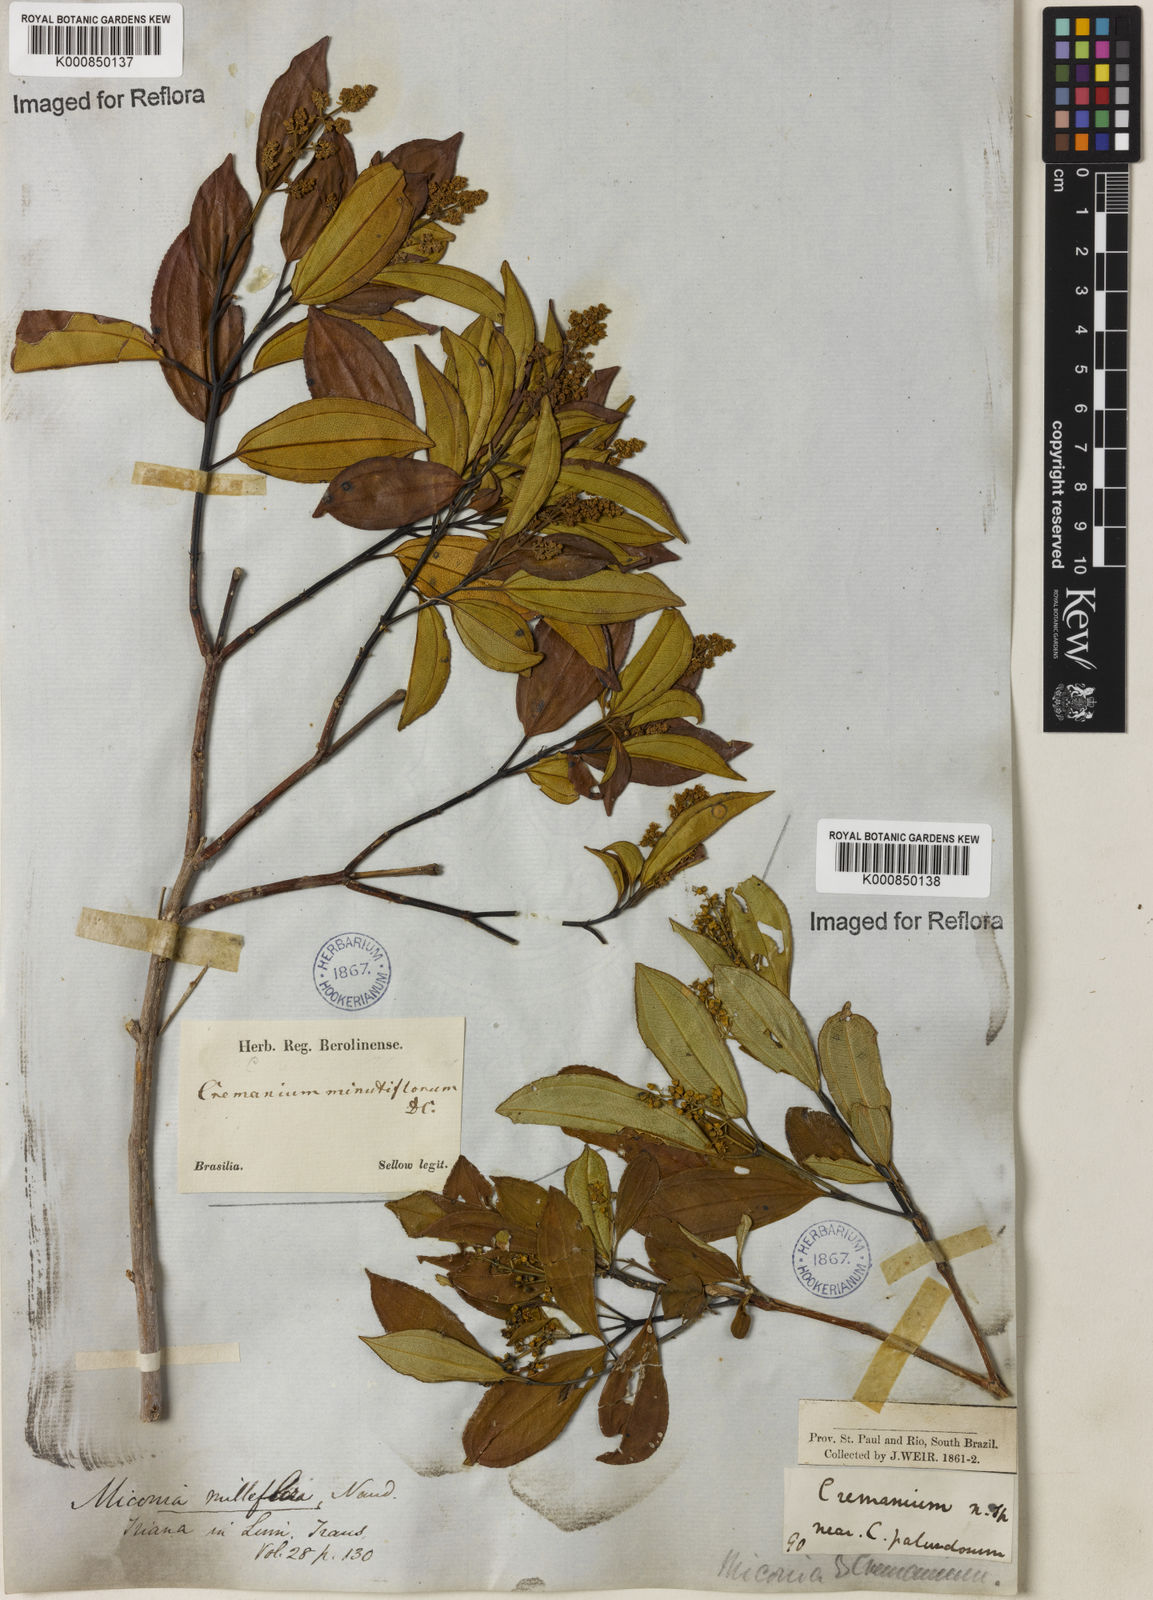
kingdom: Plantae
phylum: Tracheophyta
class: Magnoliopsida
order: Myrtales
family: Melastomataceae
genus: Miconia
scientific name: Miconia
